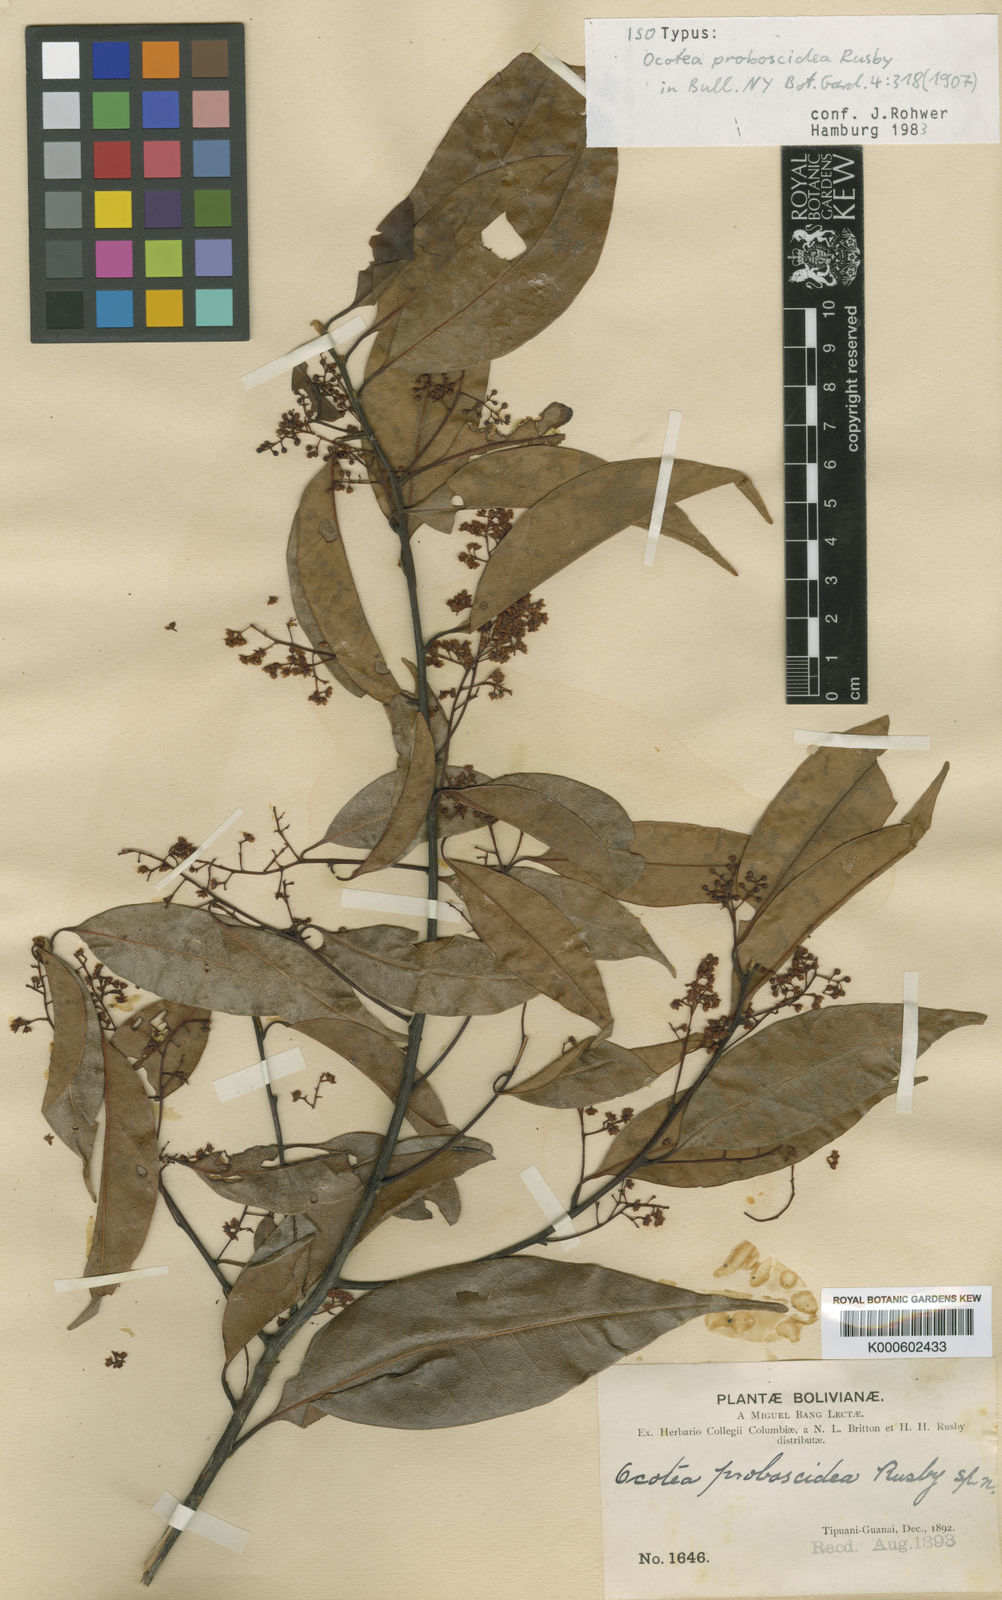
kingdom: Plantae
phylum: Tracheophyta
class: Magnoliopsida
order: Laurales
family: Lauraceae
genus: Mespilodaphne
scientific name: Mespilodaphne corymbosa
